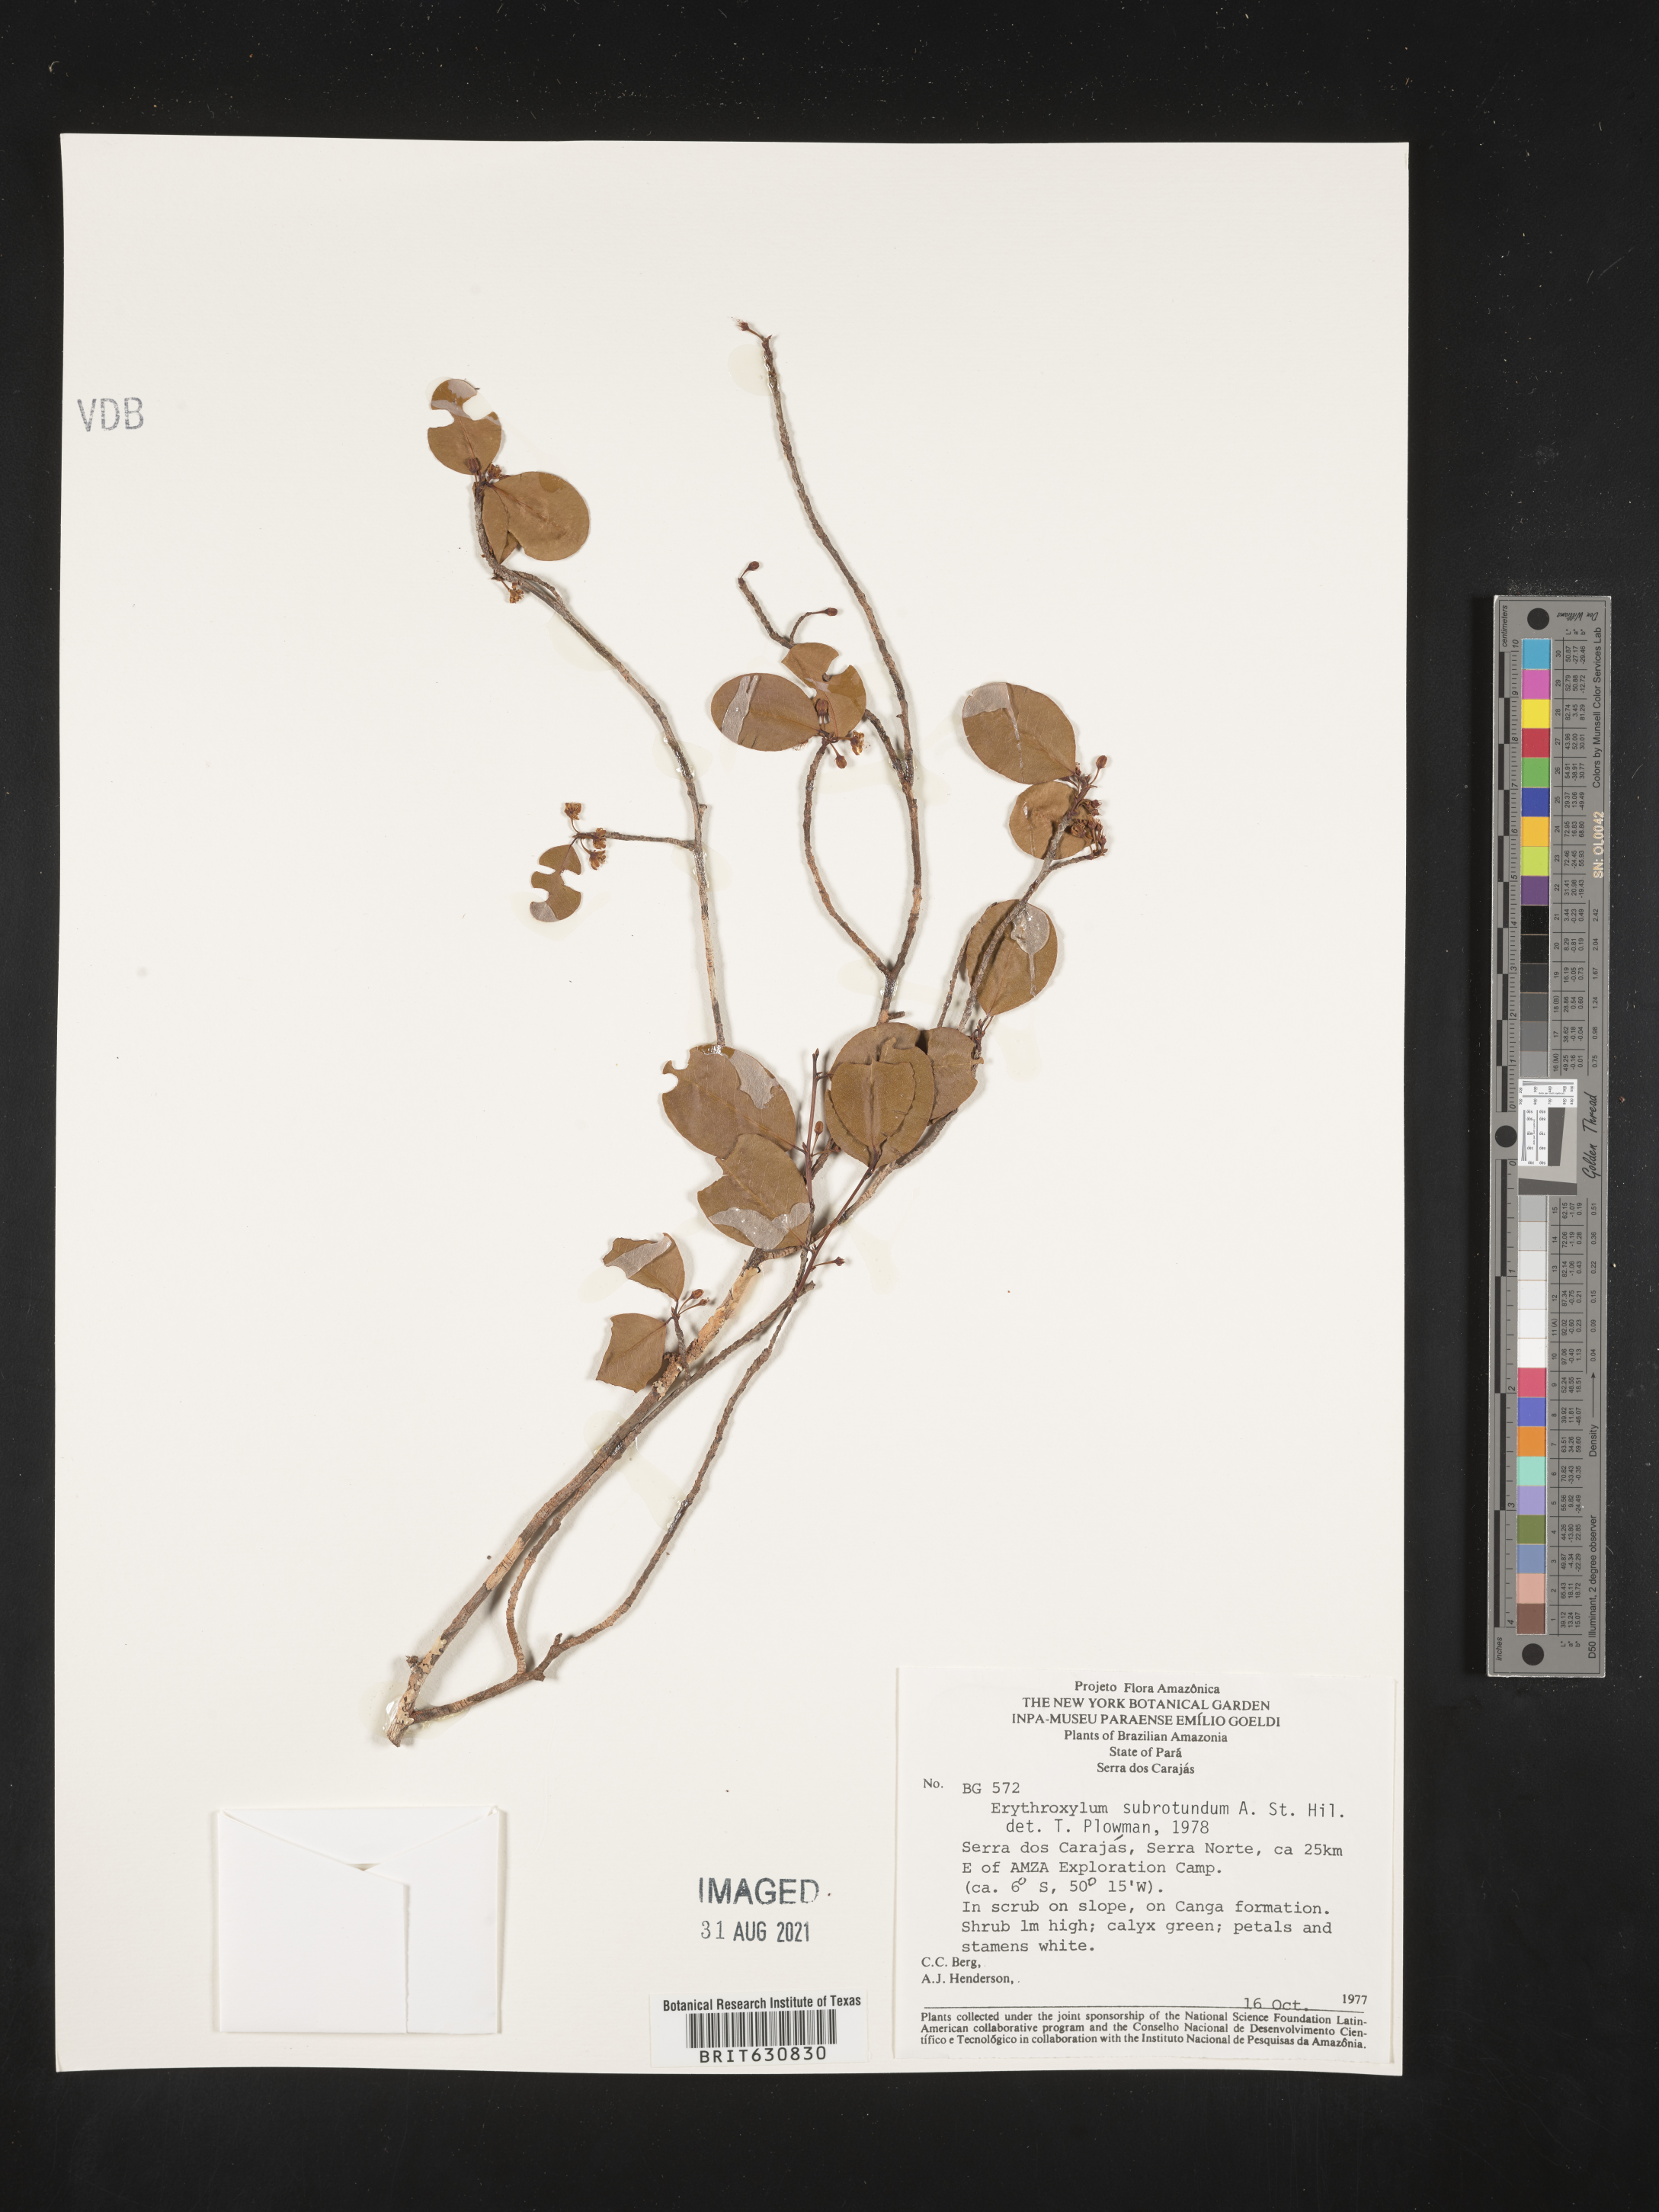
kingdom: Plantae
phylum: Tracheophyta
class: Magnoliopsida
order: Malpighiales
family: Erythroxylaceae
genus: Erythroxylum
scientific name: Erythroxylum
